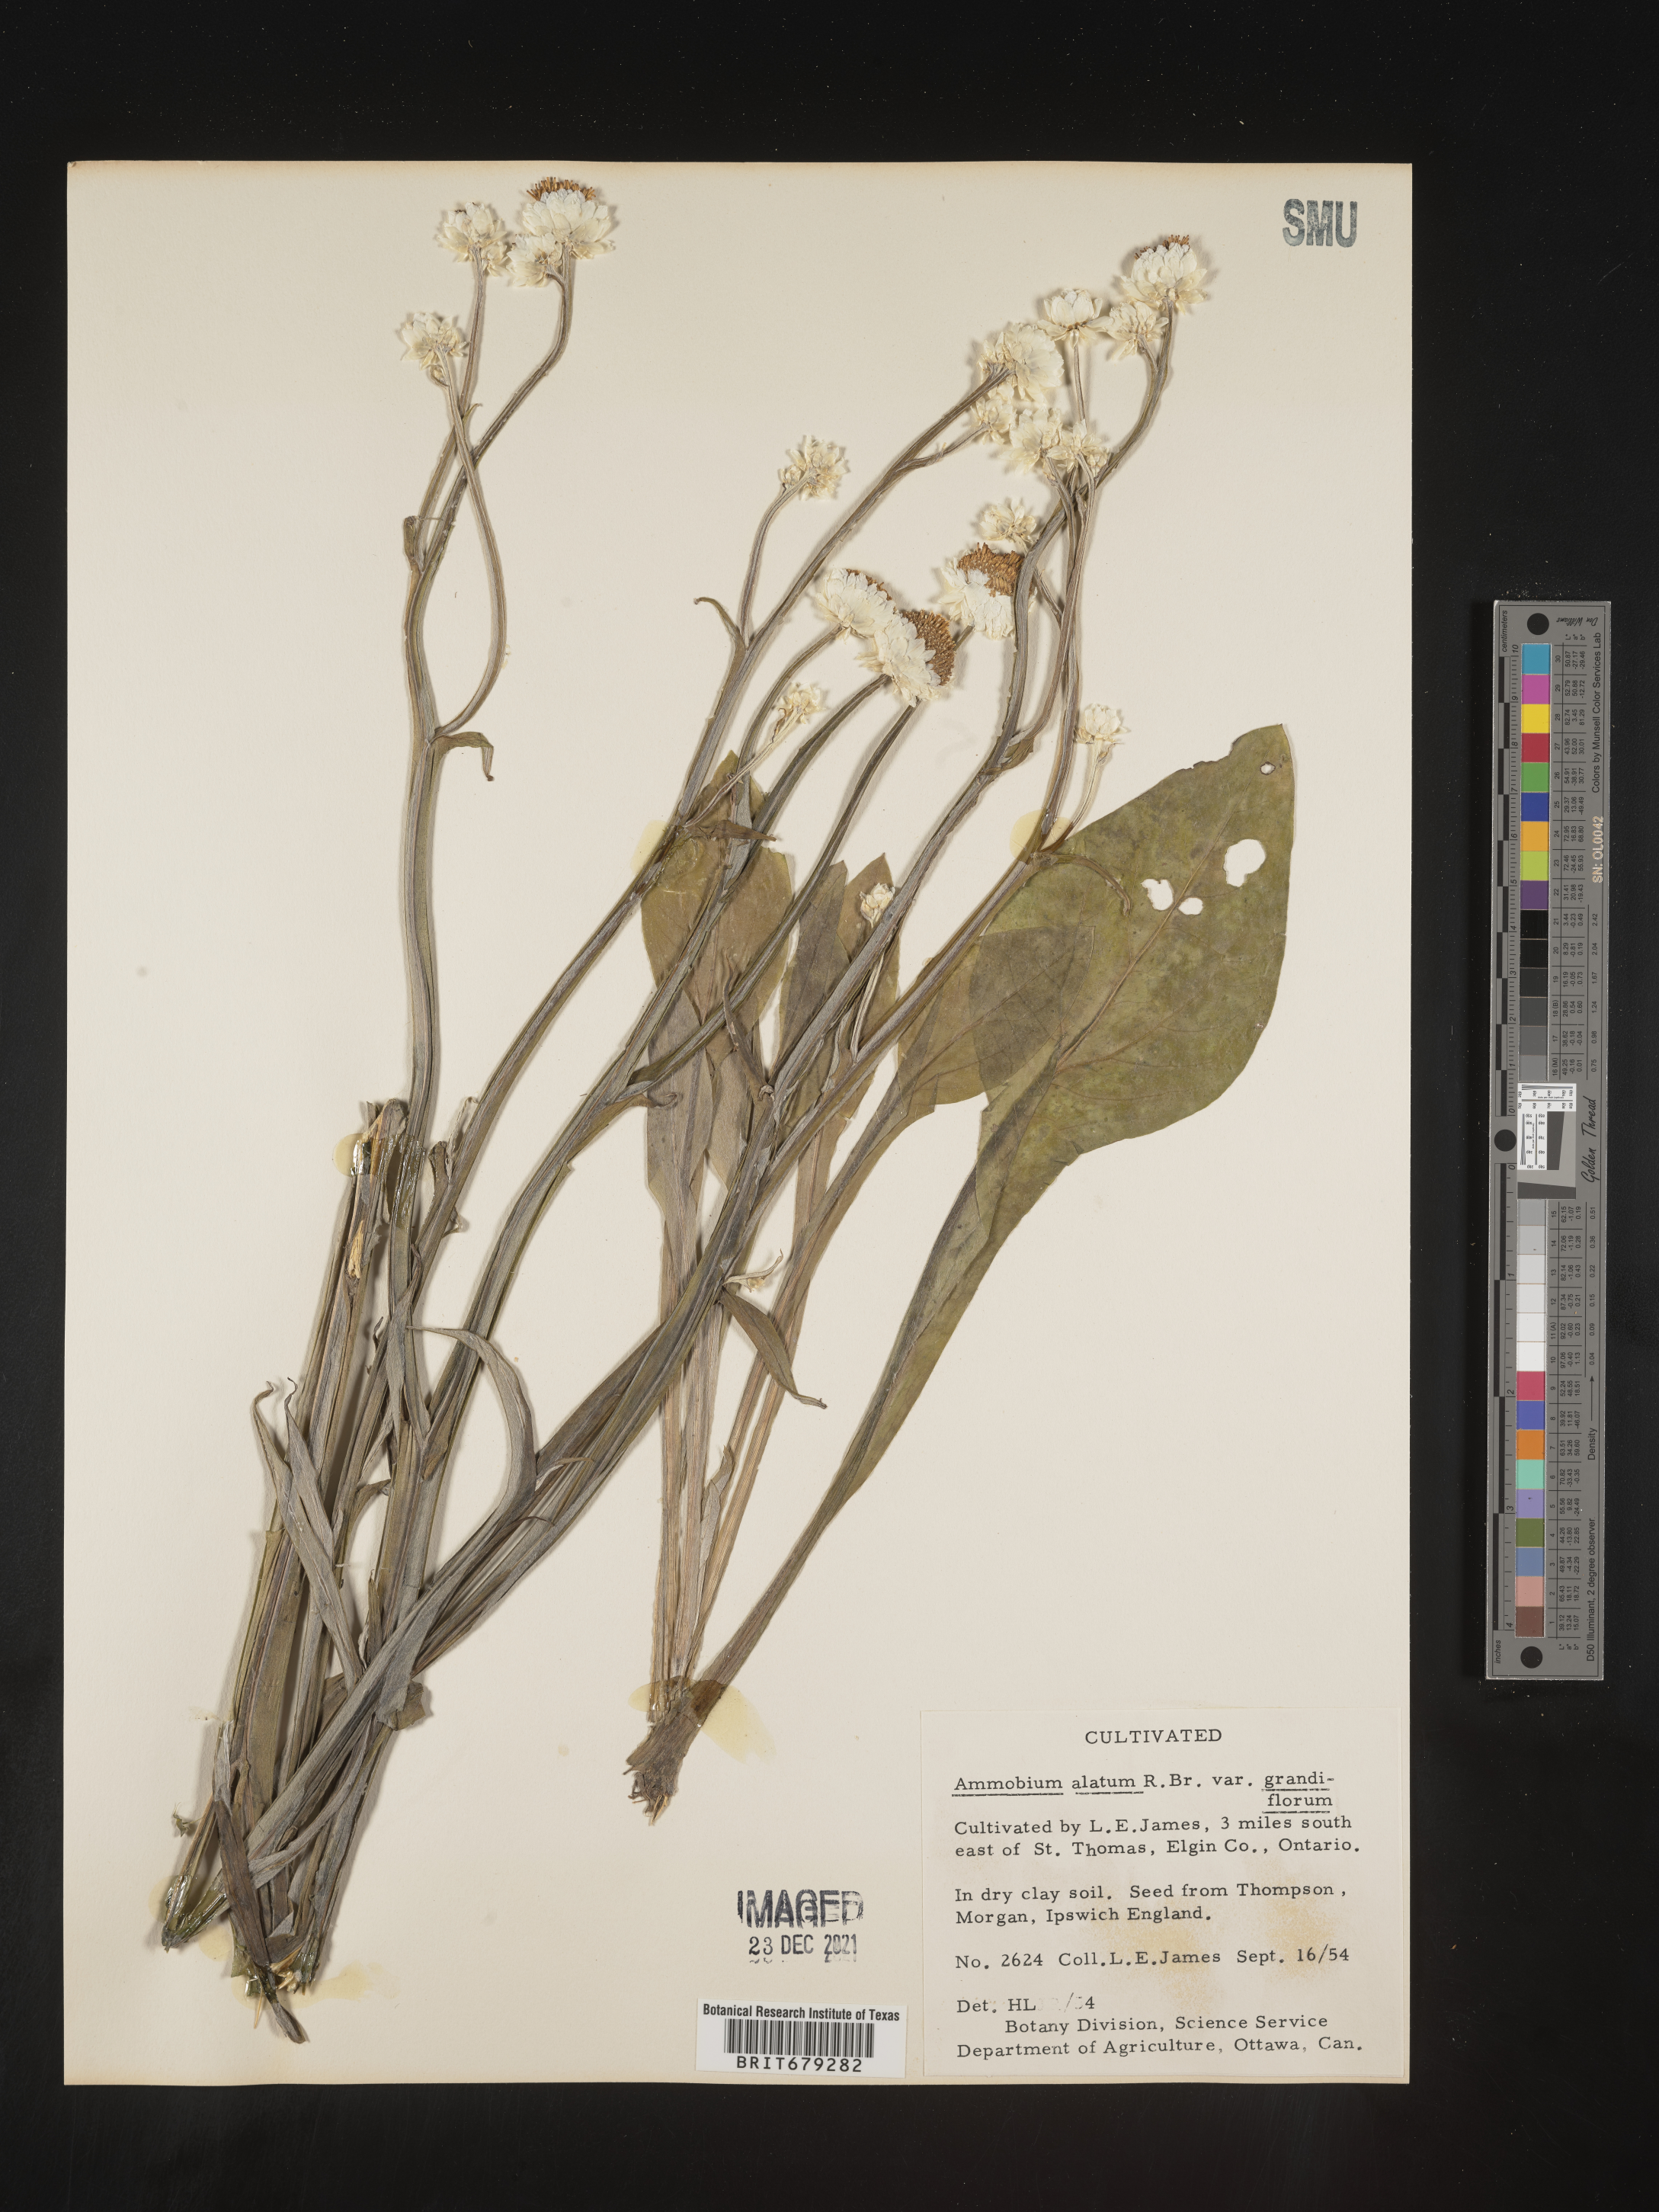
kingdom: Plantae
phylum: Tracheophyta
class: Magnoliopsida
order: Asterales
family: Asteraceae
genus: Ammobium
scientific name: Ammobium
